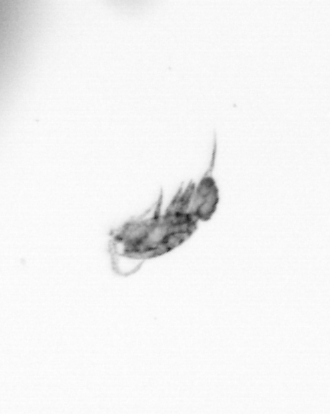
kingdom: Animalia
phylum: Arthropoda
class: Copepoda
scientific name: Copepoda
